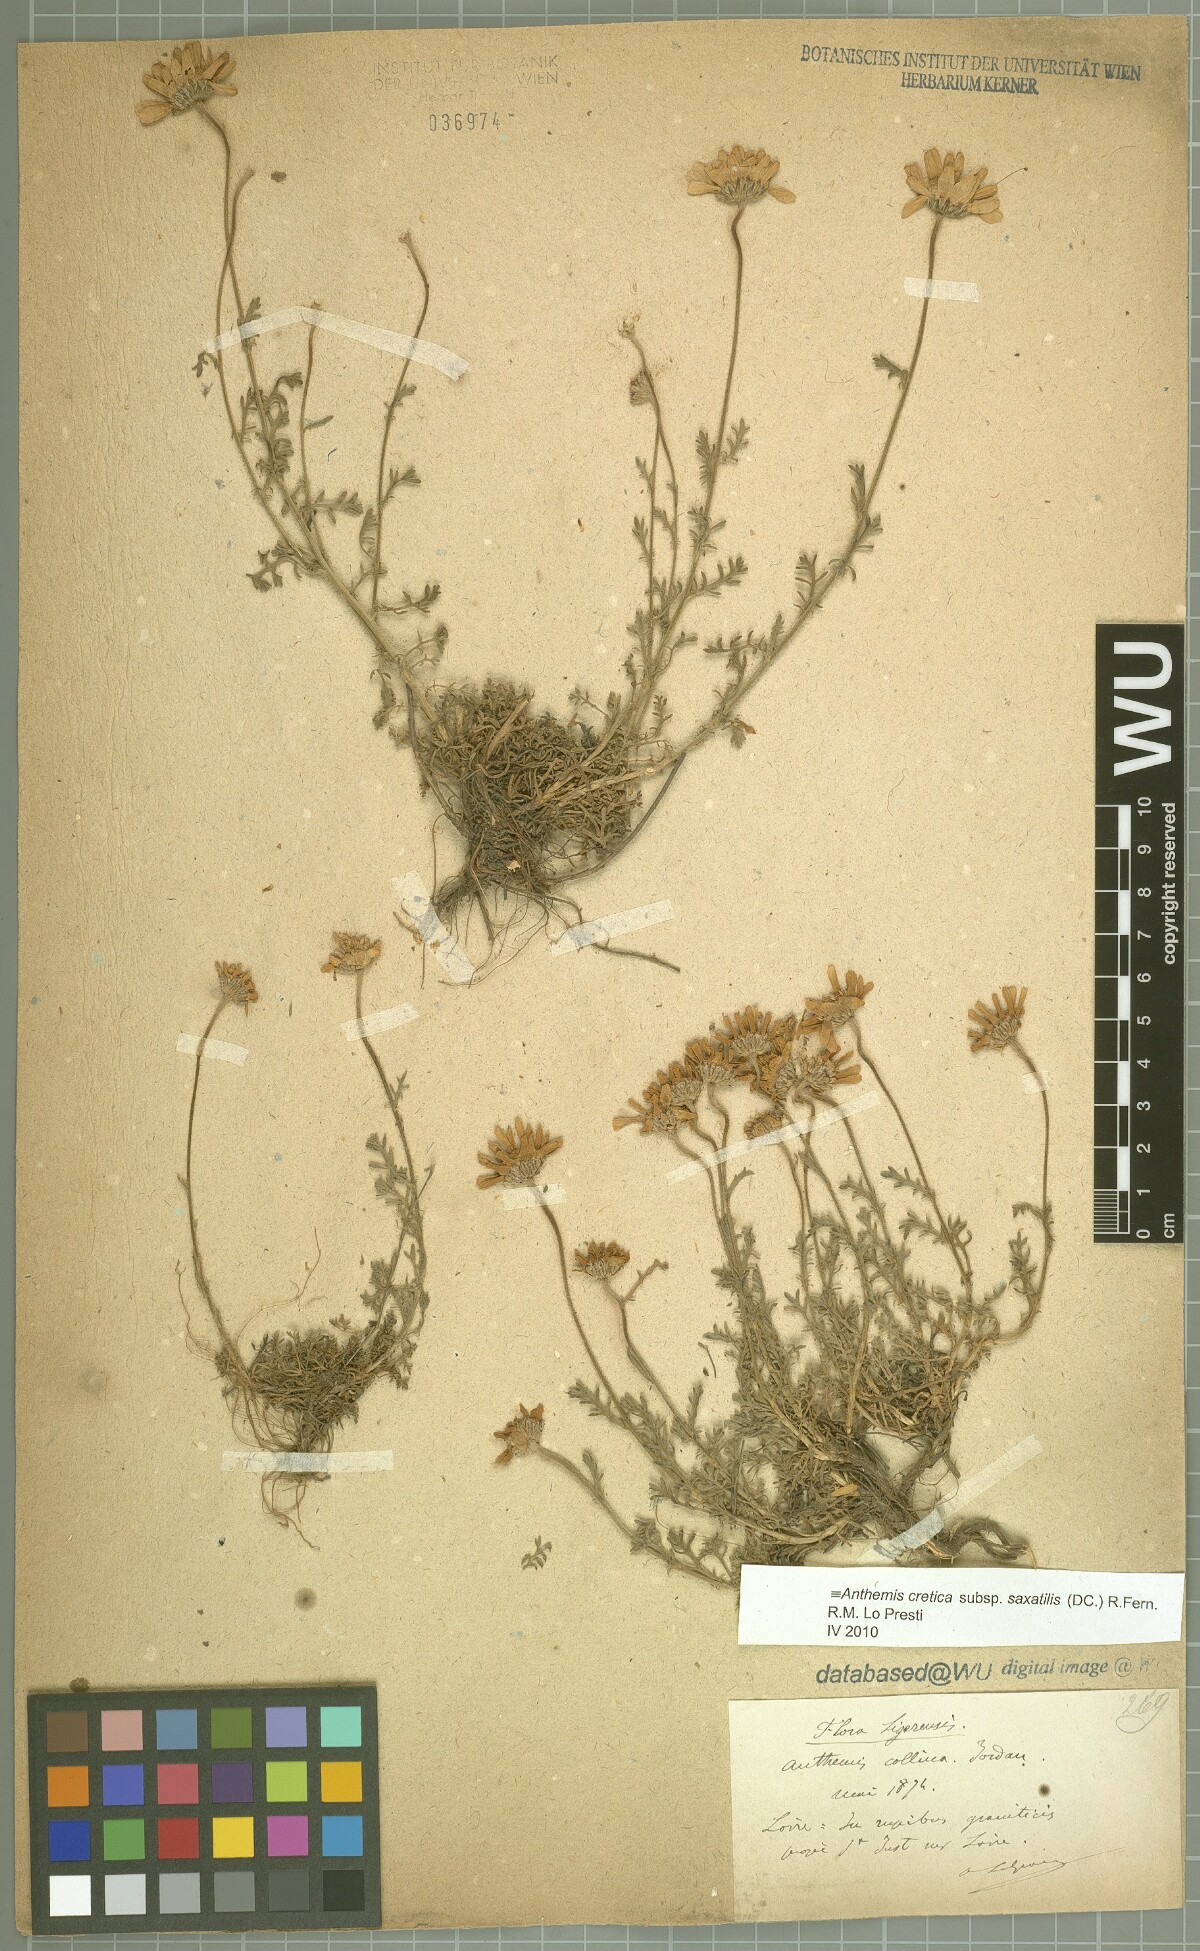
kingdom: Plantae
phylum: Tracheophyta
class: Magnoliopsida
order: Asterales
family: Asteraceae
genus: Anthemis
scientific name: Anthemis cretica
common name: Mountain dog-daisy
